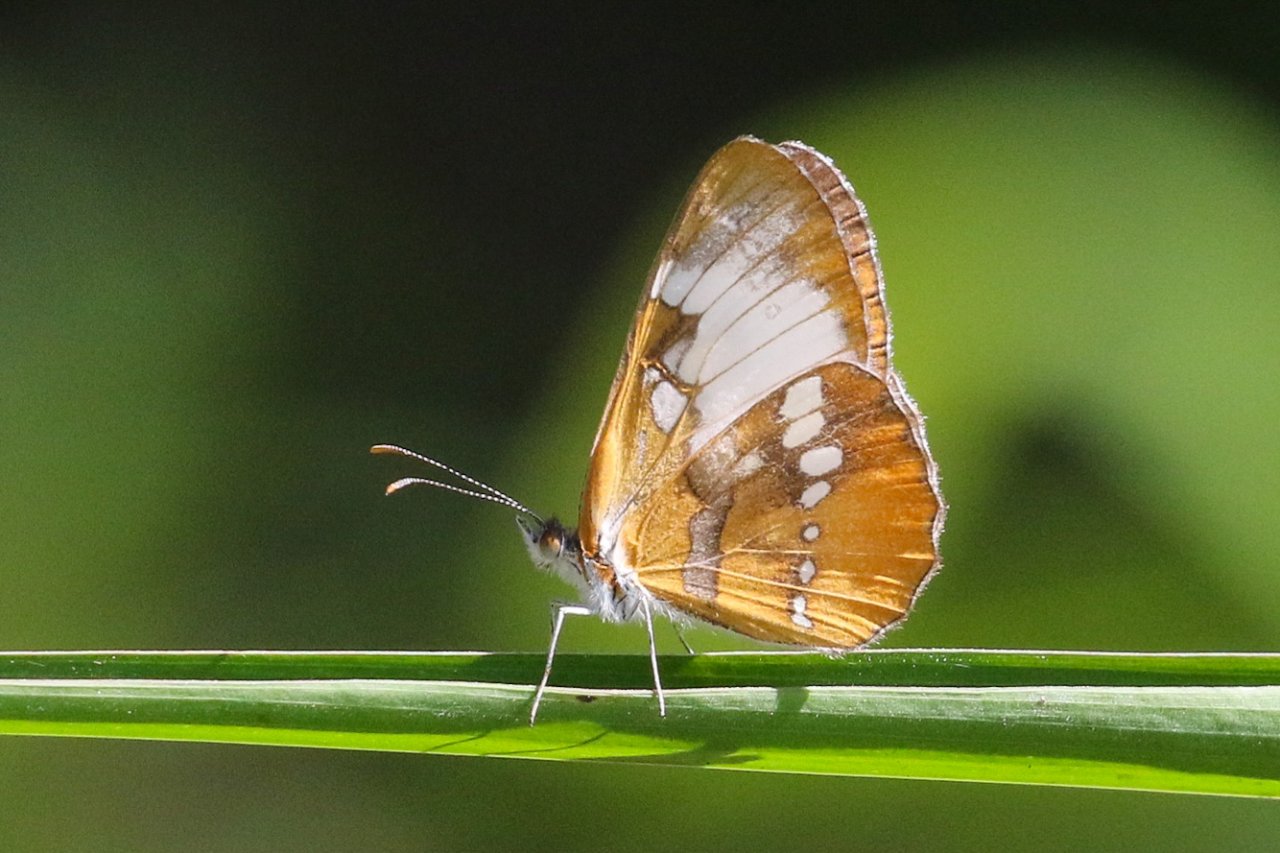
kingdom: Animalia
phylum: Arthropoda
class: Insecta
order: Lepidoptera
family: Nymphalidae
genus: Mestra
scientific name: Mestra amymone
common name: Common Mestra
